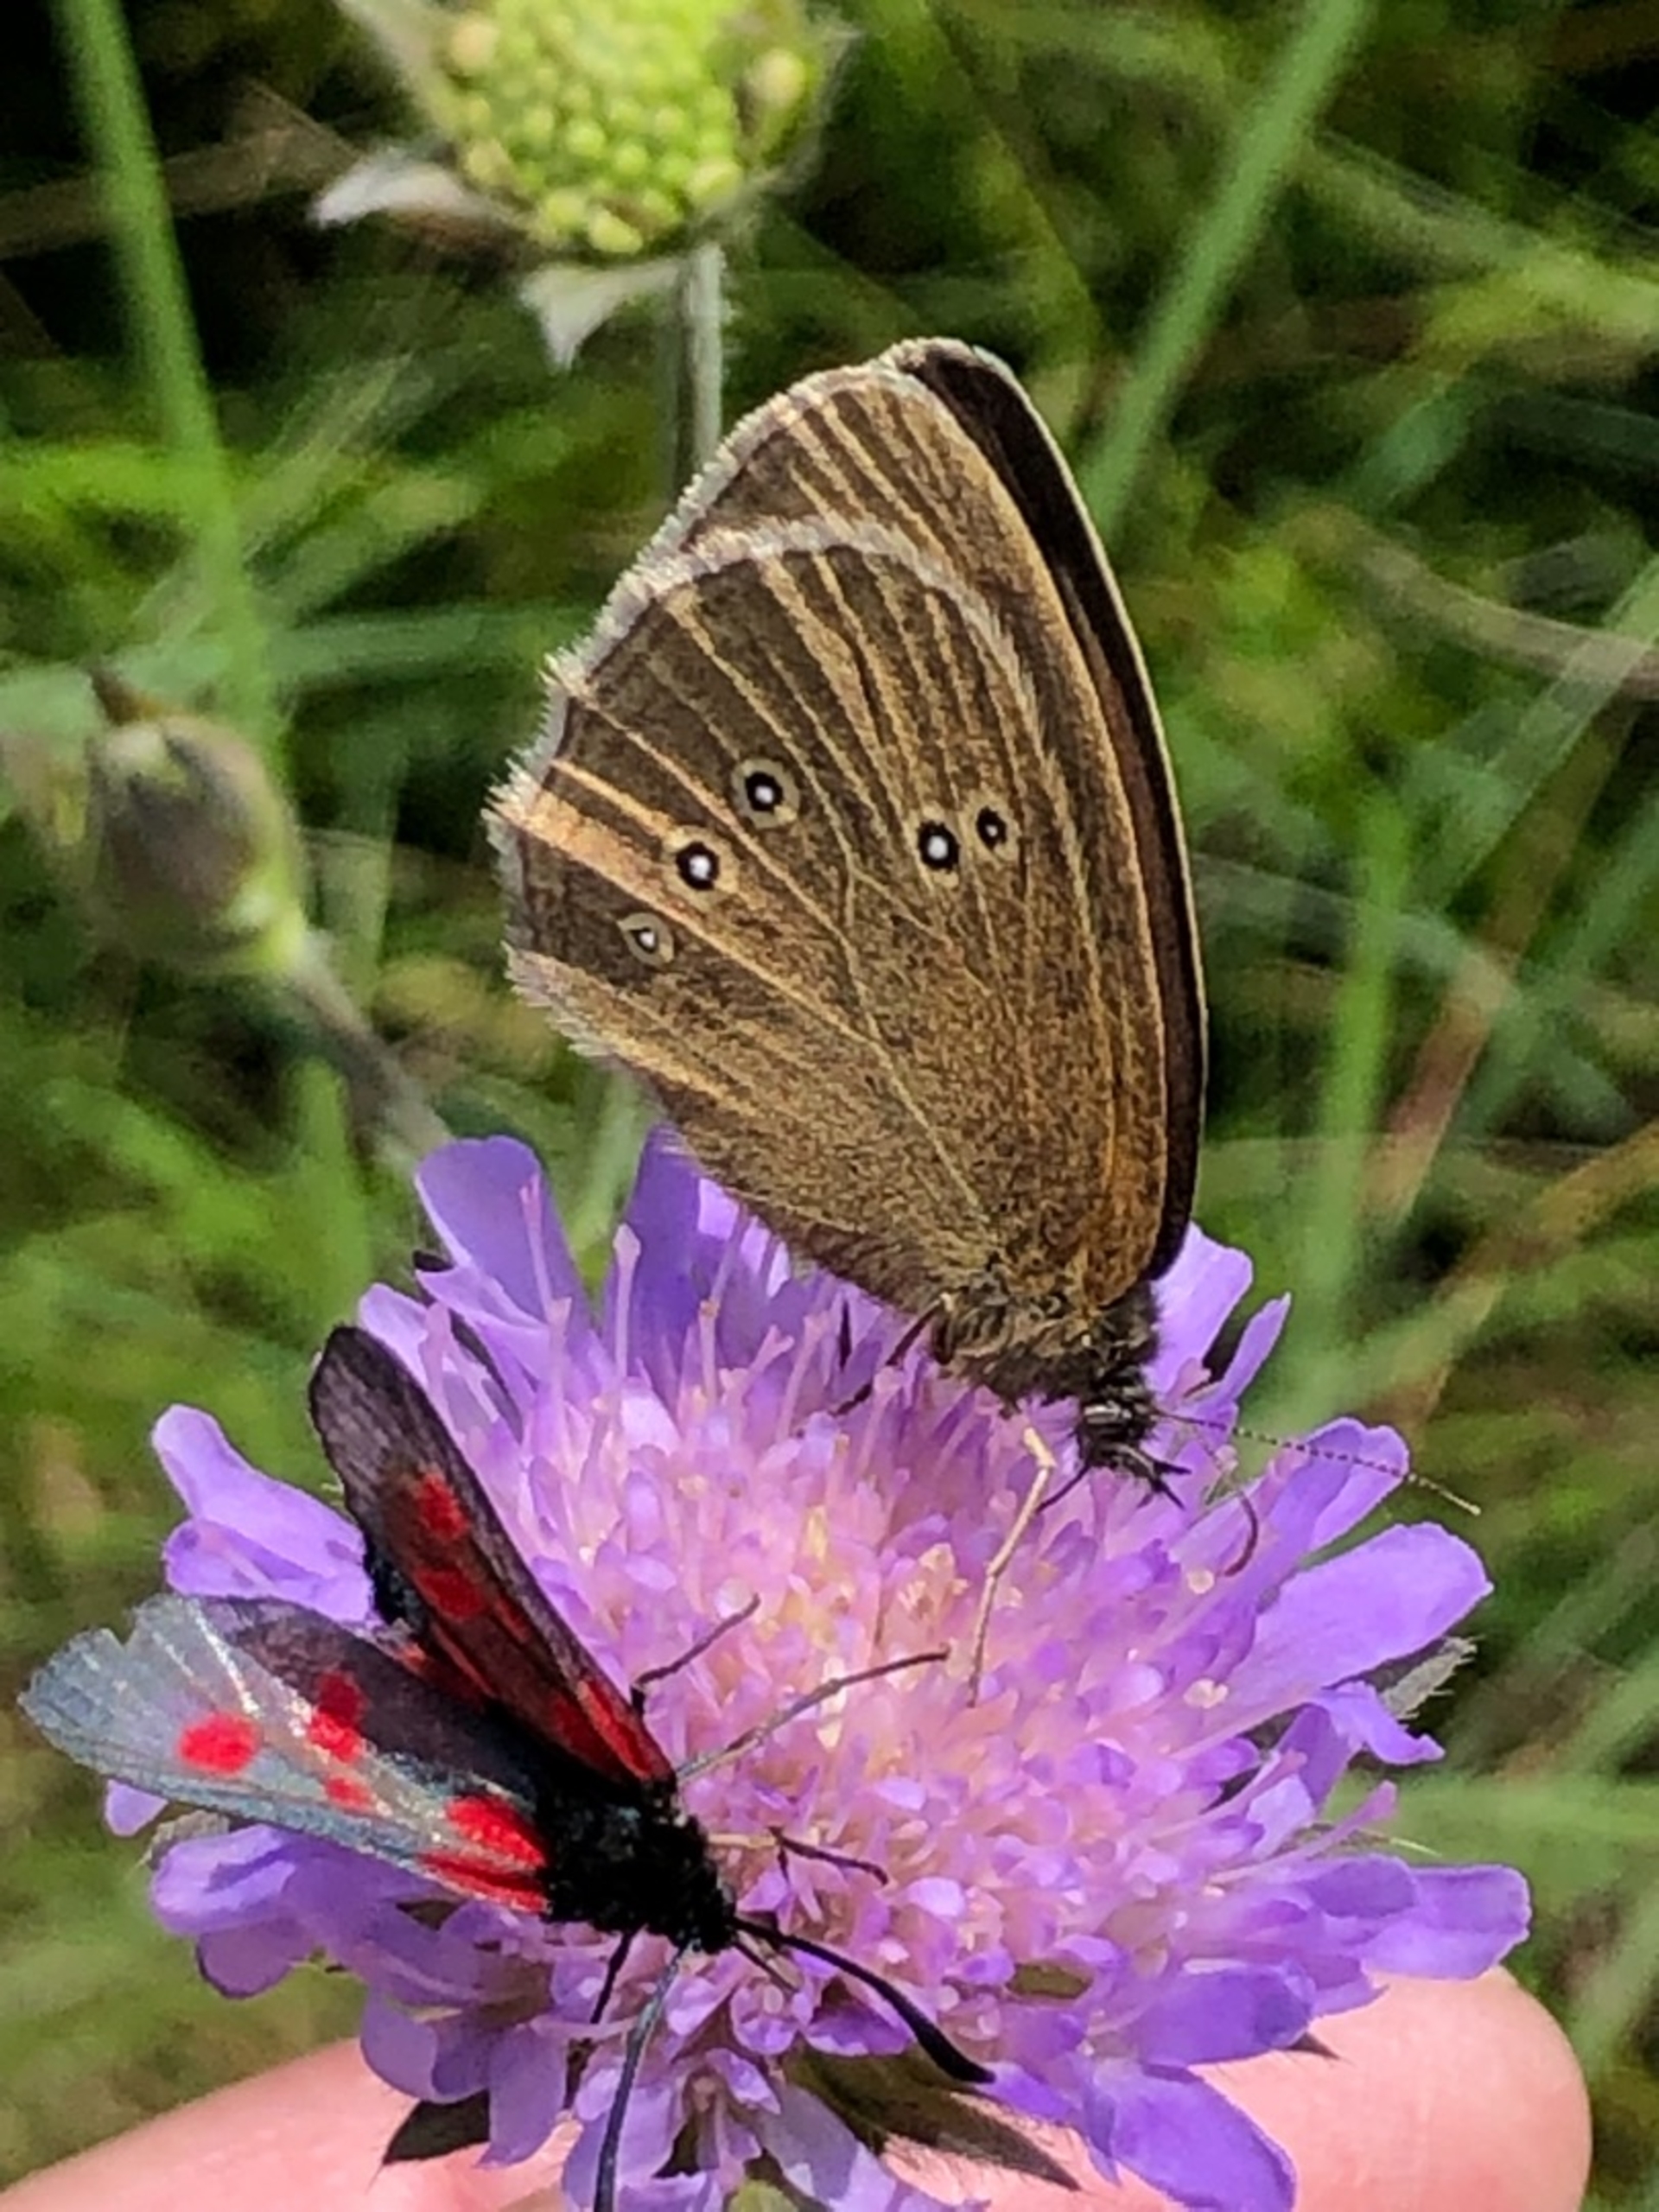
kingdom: Animalia
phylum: Arthropoda
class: Insecta
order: Lepidoptera
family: Nymphalidae
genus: Aphantopus
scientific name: Aphantopus hyperantus
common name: Engrandøje
